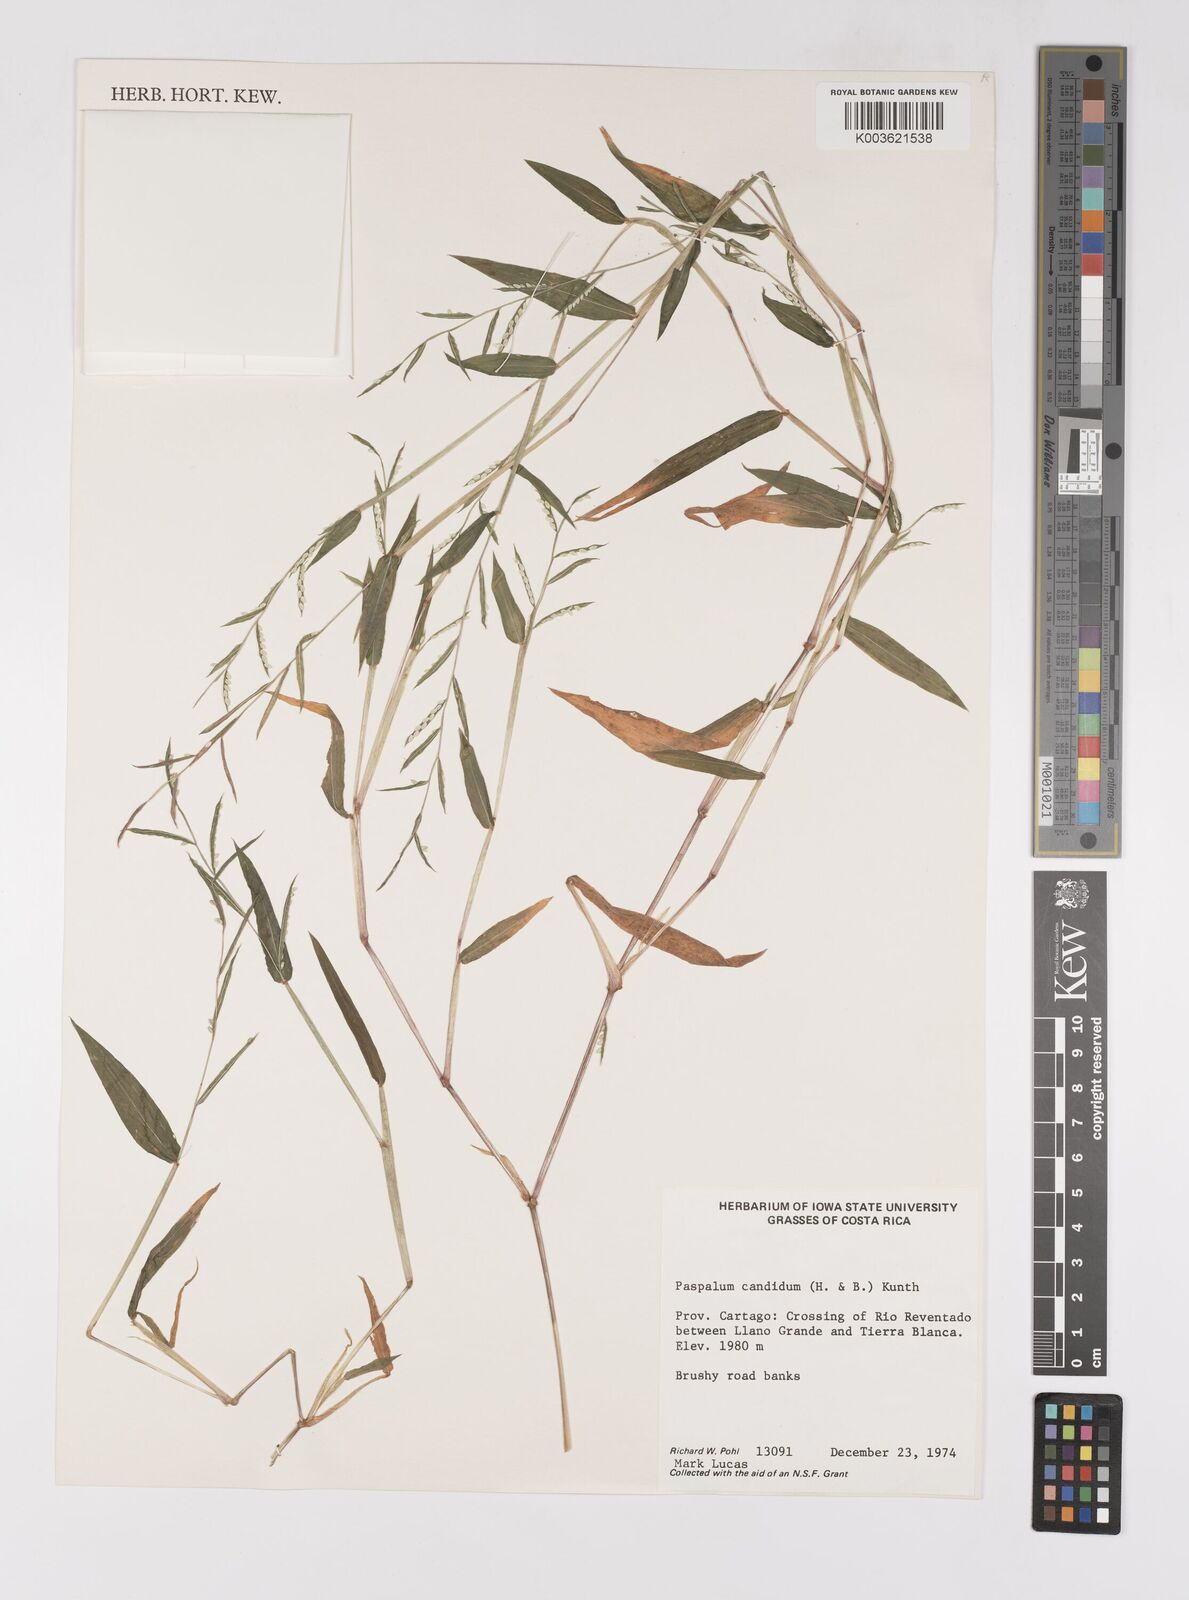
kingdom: Plantae
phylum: Tracheophyta
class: Liliopsida
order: Poales
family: Poaceae
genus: Paspalum
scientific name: Paspalum candidum
